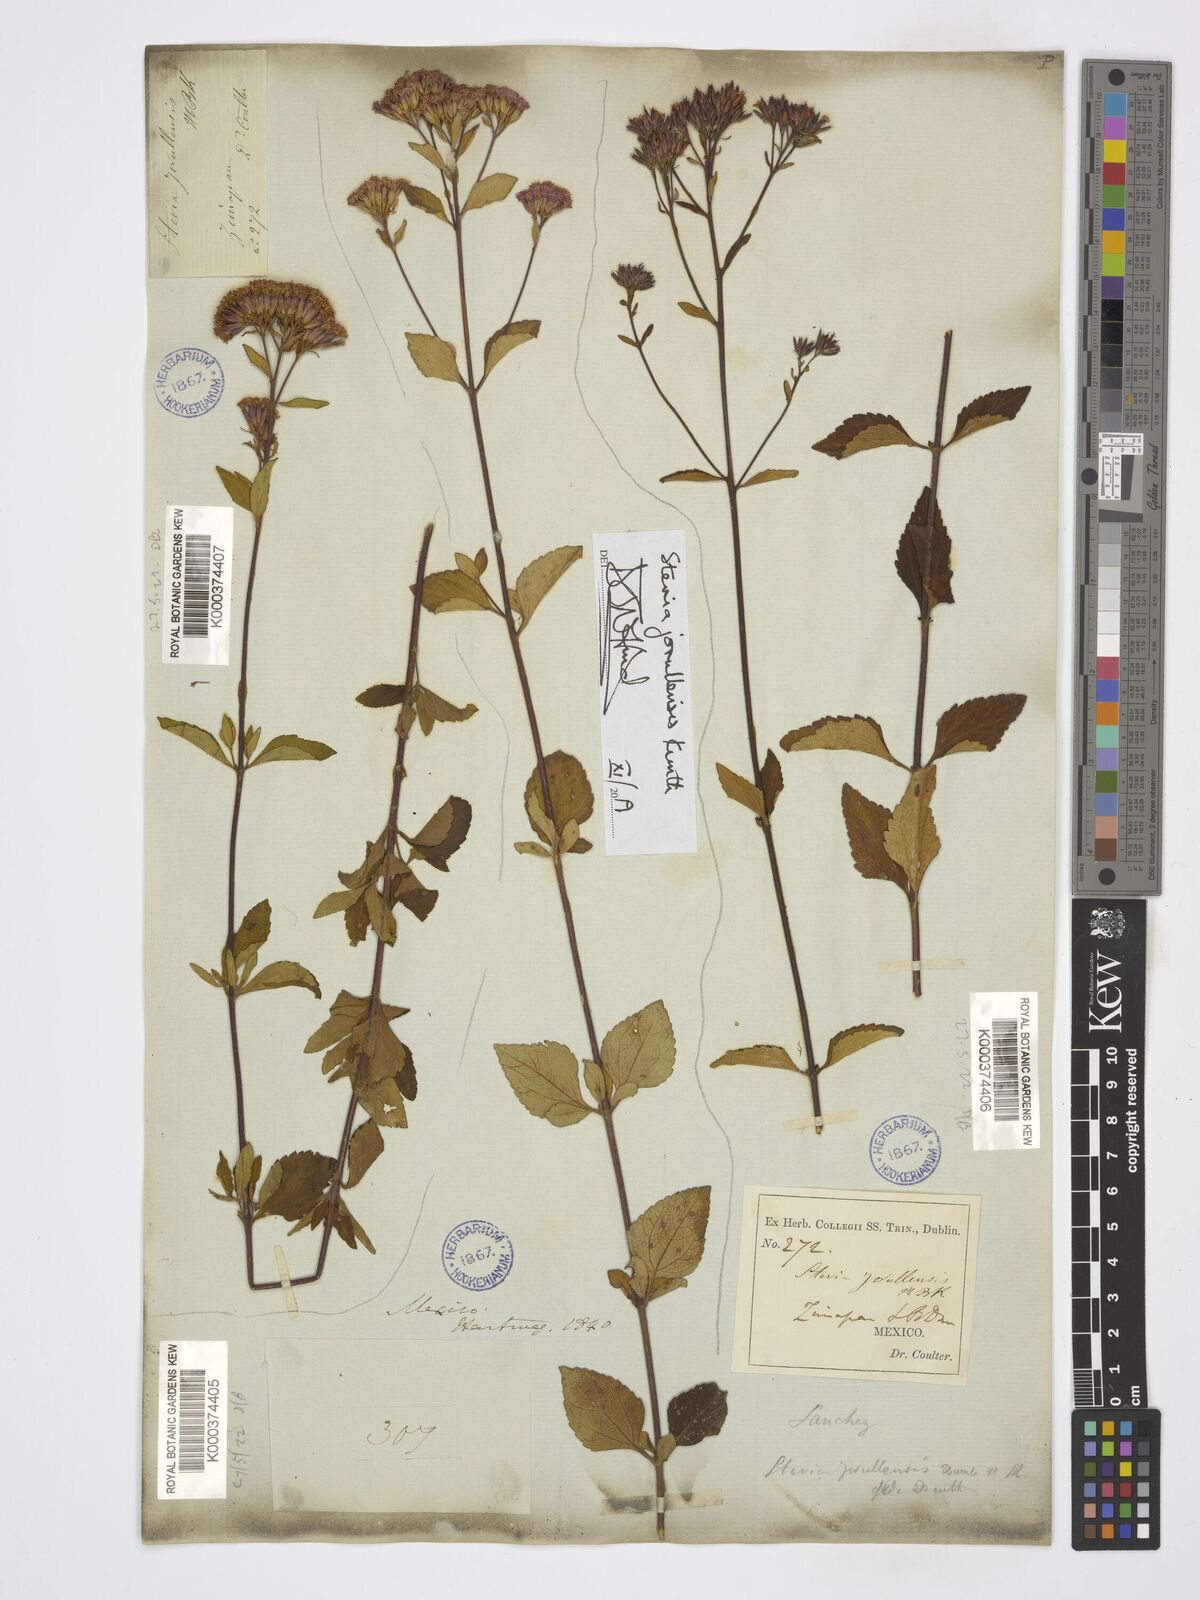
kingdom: Plantae
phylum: Tracheophyta
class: Magnoliopsida
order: Asterales
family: Asteraceae
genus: Stevia
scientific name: Stevia jorullensis
